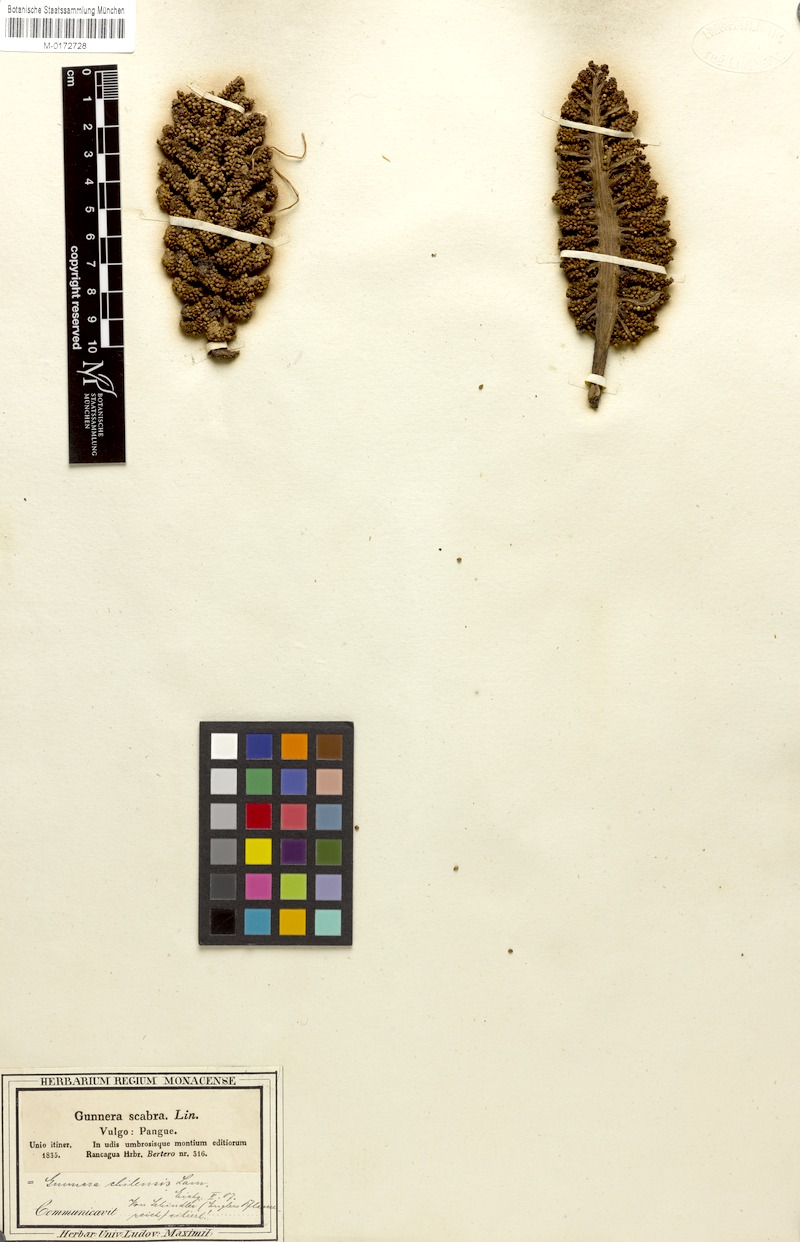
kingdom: Plantae
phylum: Tracheophyta
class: Magnoliopsida
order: Gunnerales
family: Gunneraceae
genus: Gunnera
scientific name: Gunnera tinctoria
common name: Giant-rhubarb
